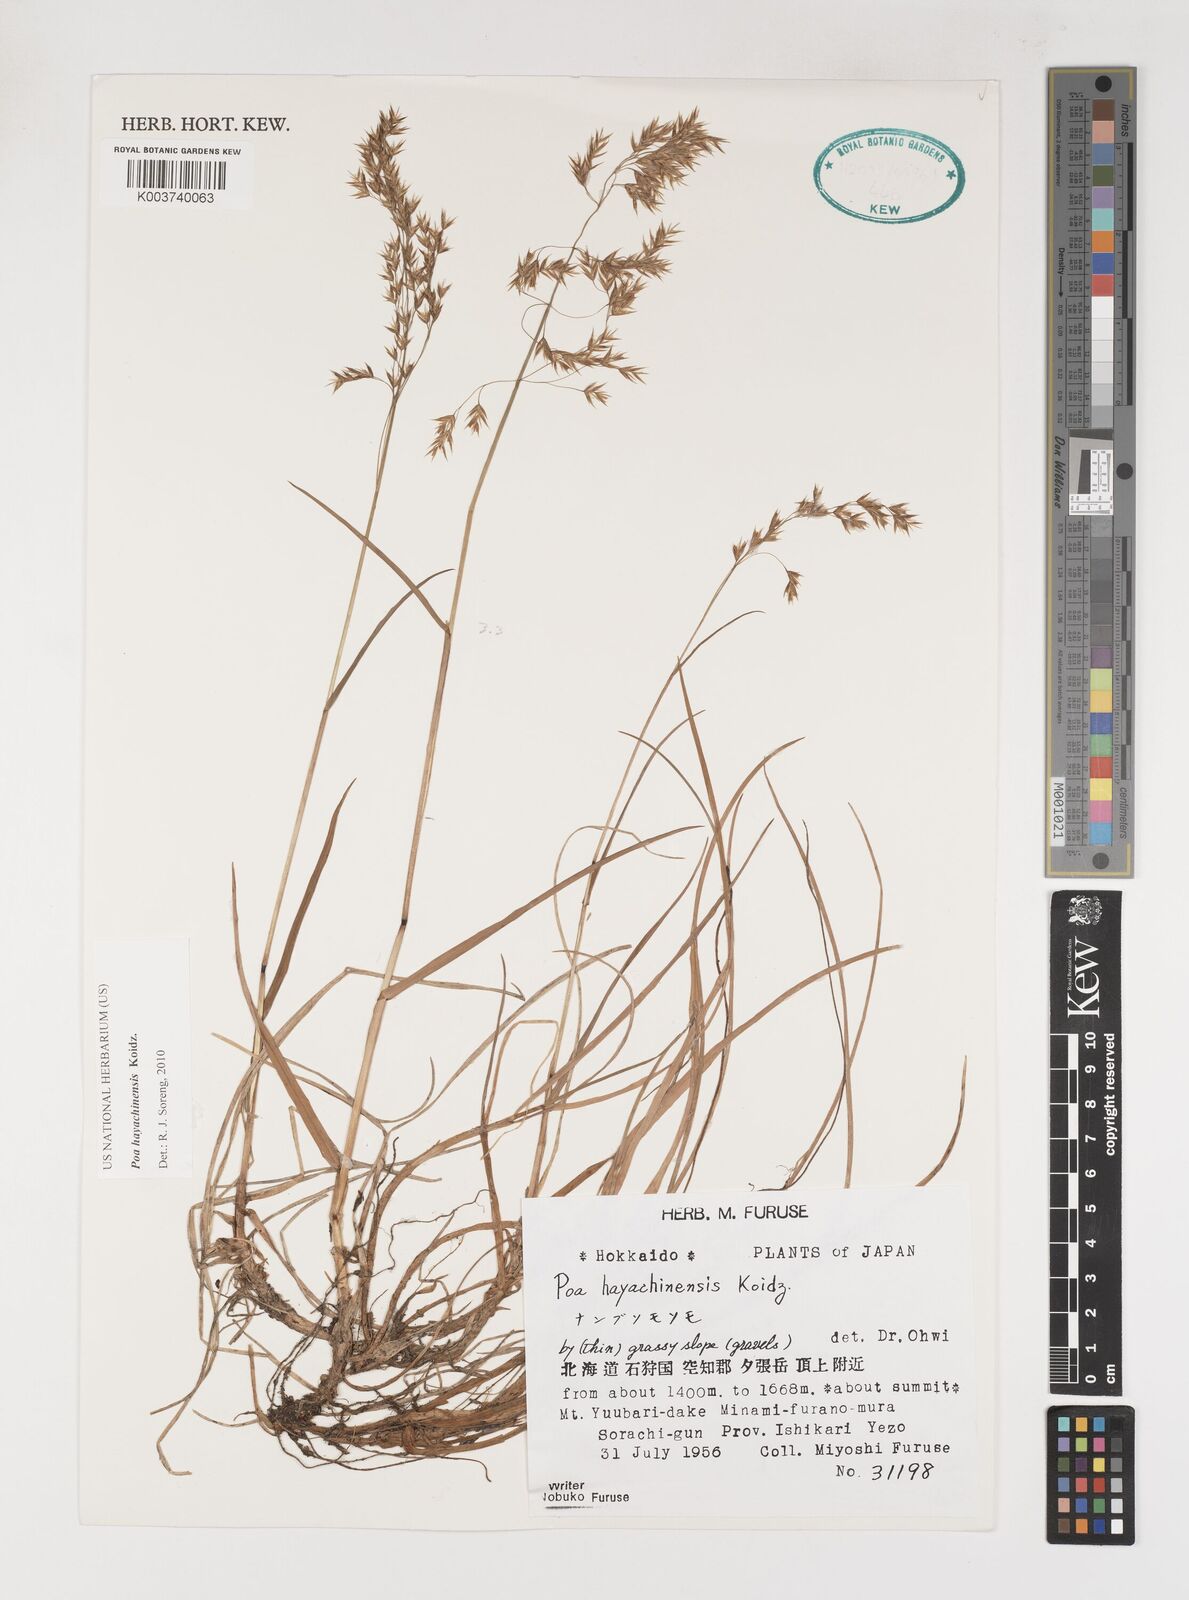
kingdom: Plantae
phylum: Tracheophyta
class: Liliopsida
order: Poales
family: Poaceae
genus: Dupontiopsis
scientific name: Dupontiopsis hayachinensis
